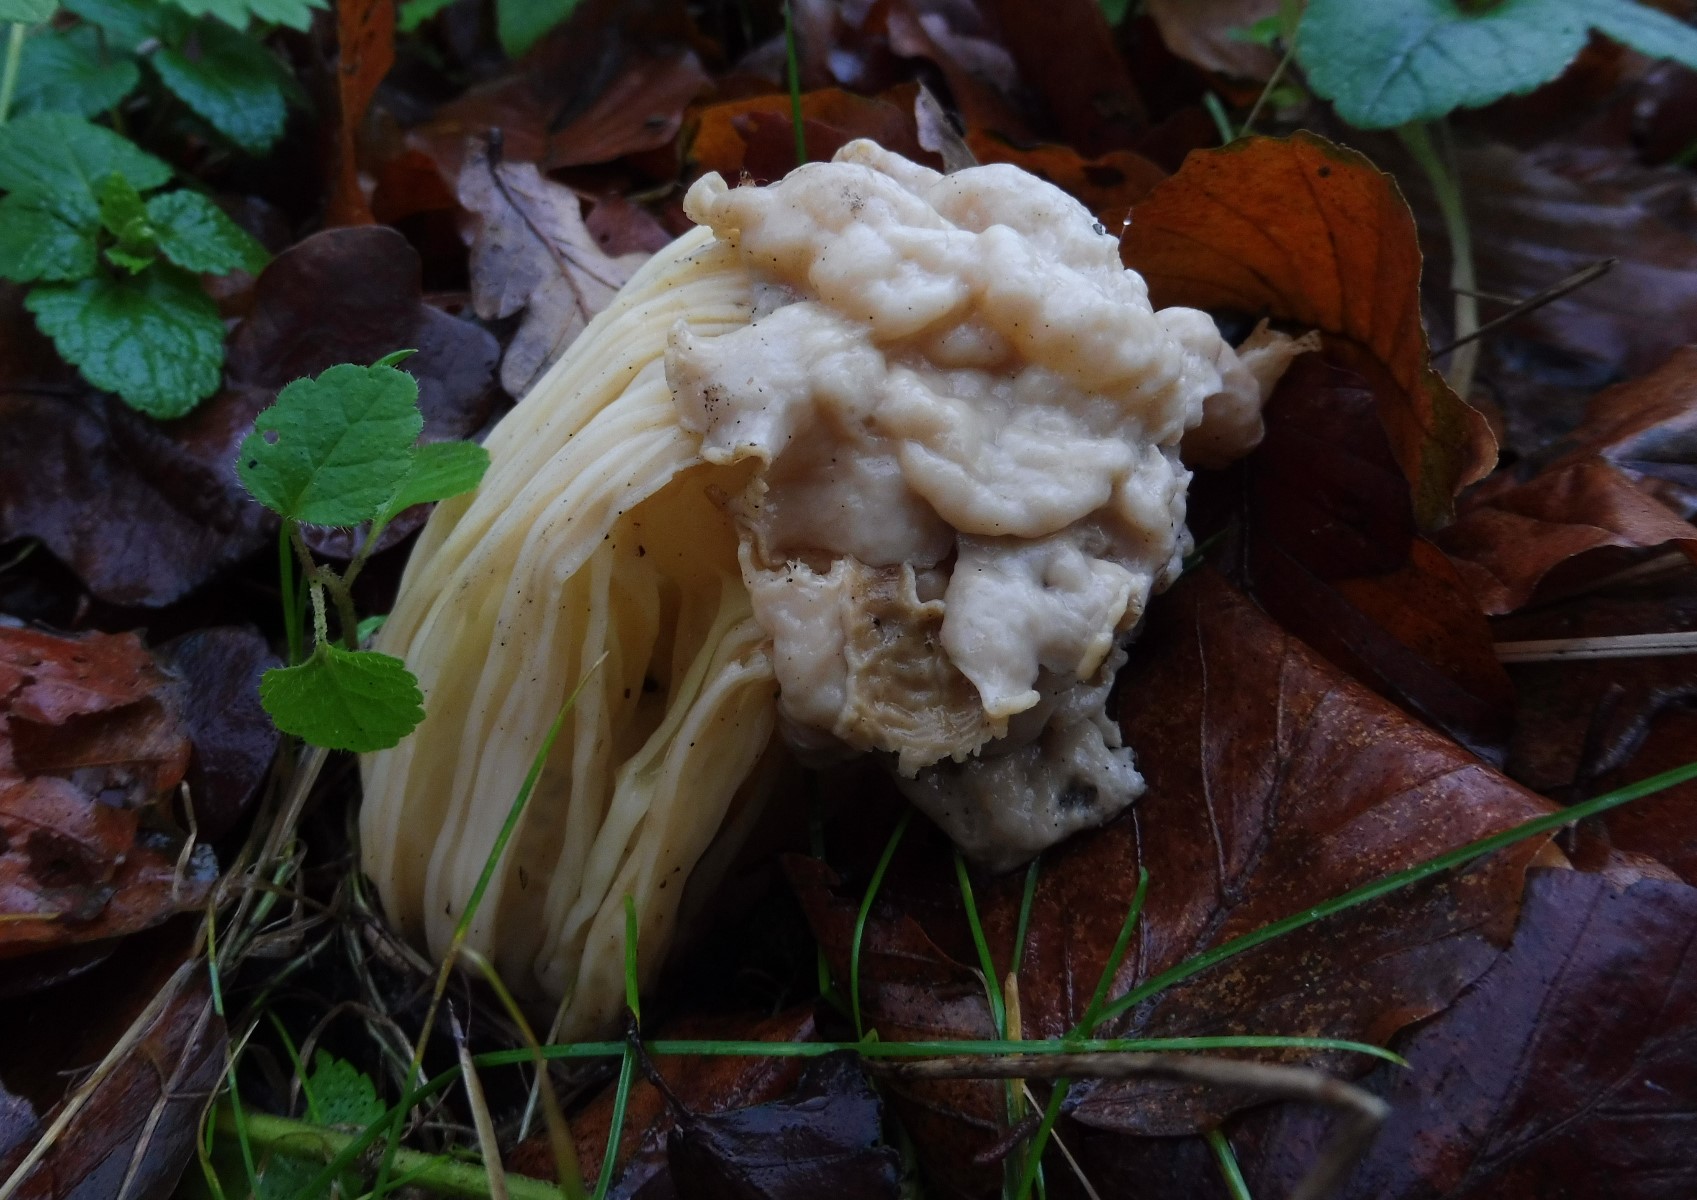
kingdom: Fungi
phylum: Ascomycota
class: Pezizomycetes
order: Pezizales
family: Helvellaceae
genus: Helvella
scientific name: Helvella crispa
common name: kruset foldhat
